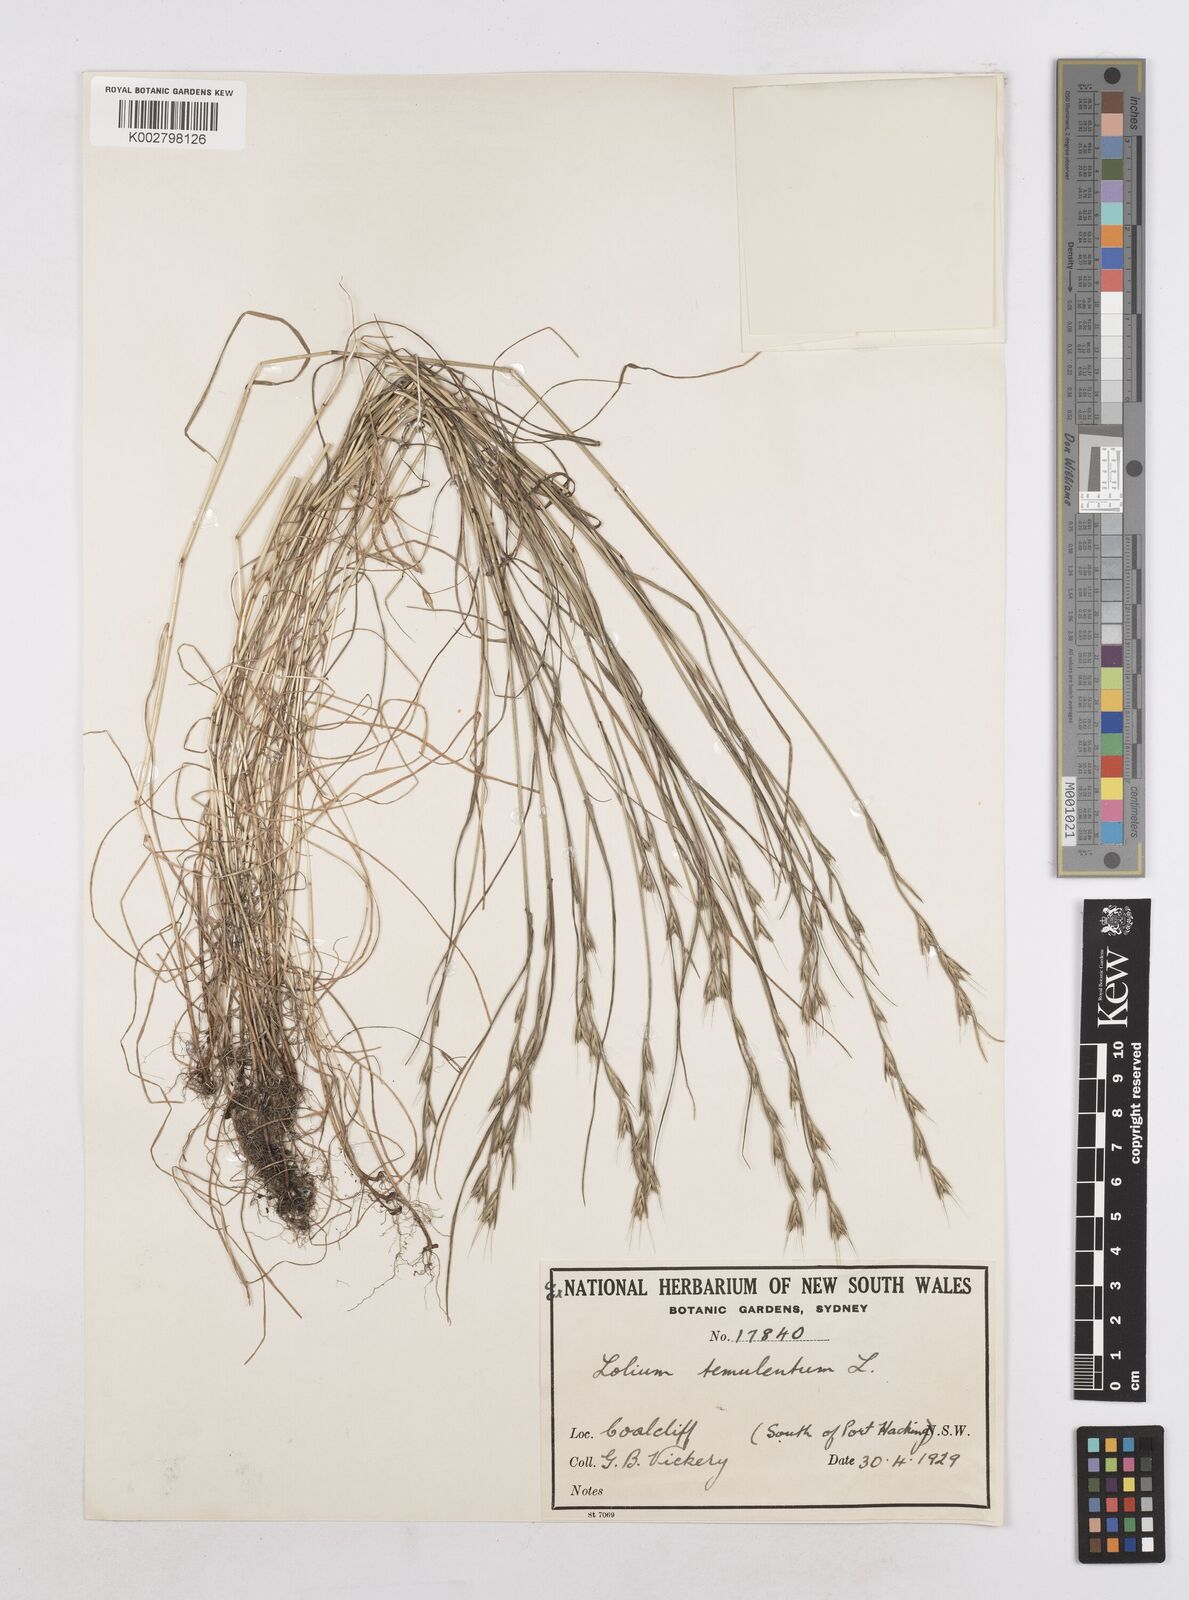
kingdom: Plantae
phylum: Tracheophyta
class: Liliopsida
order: Poales
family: Poaceae
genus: Lolium
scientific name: Lolium temulentum
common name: Darnel
